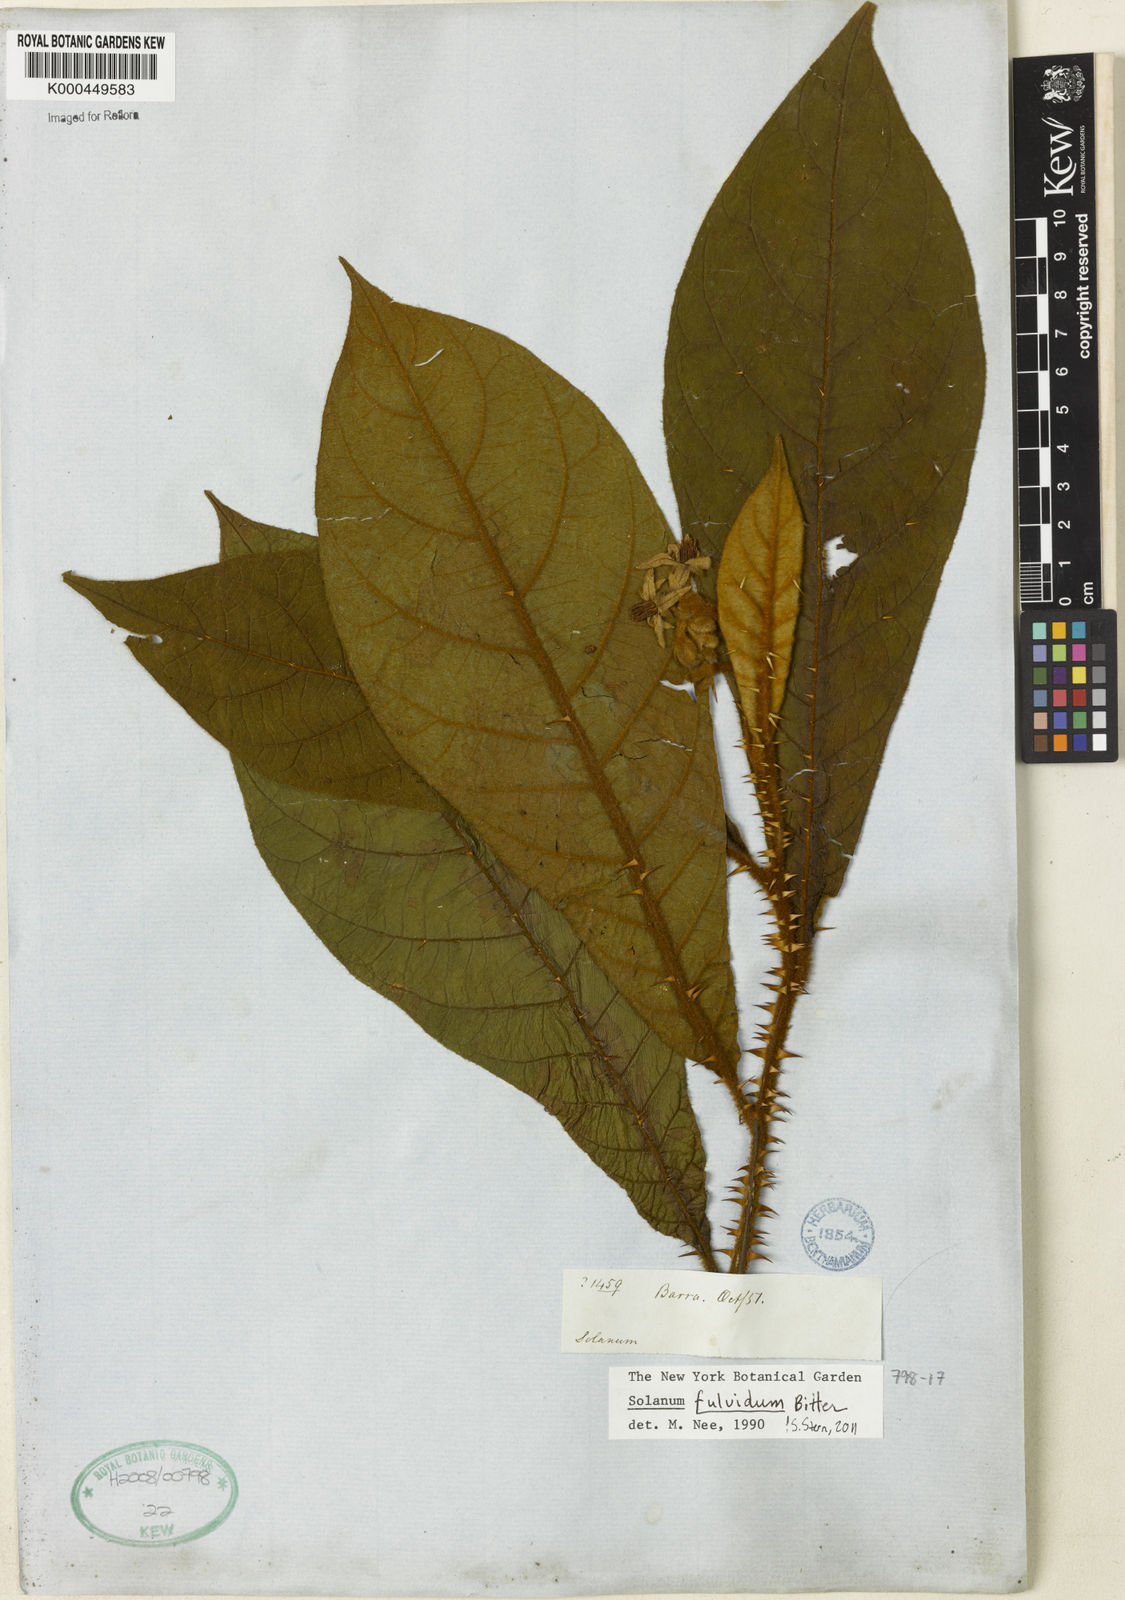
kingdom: Plantae
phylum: Tracheophyta
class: Magnoliopsida
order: Solanales
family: Solanaceae
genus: Solanum
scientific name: Solanum fulvidum
